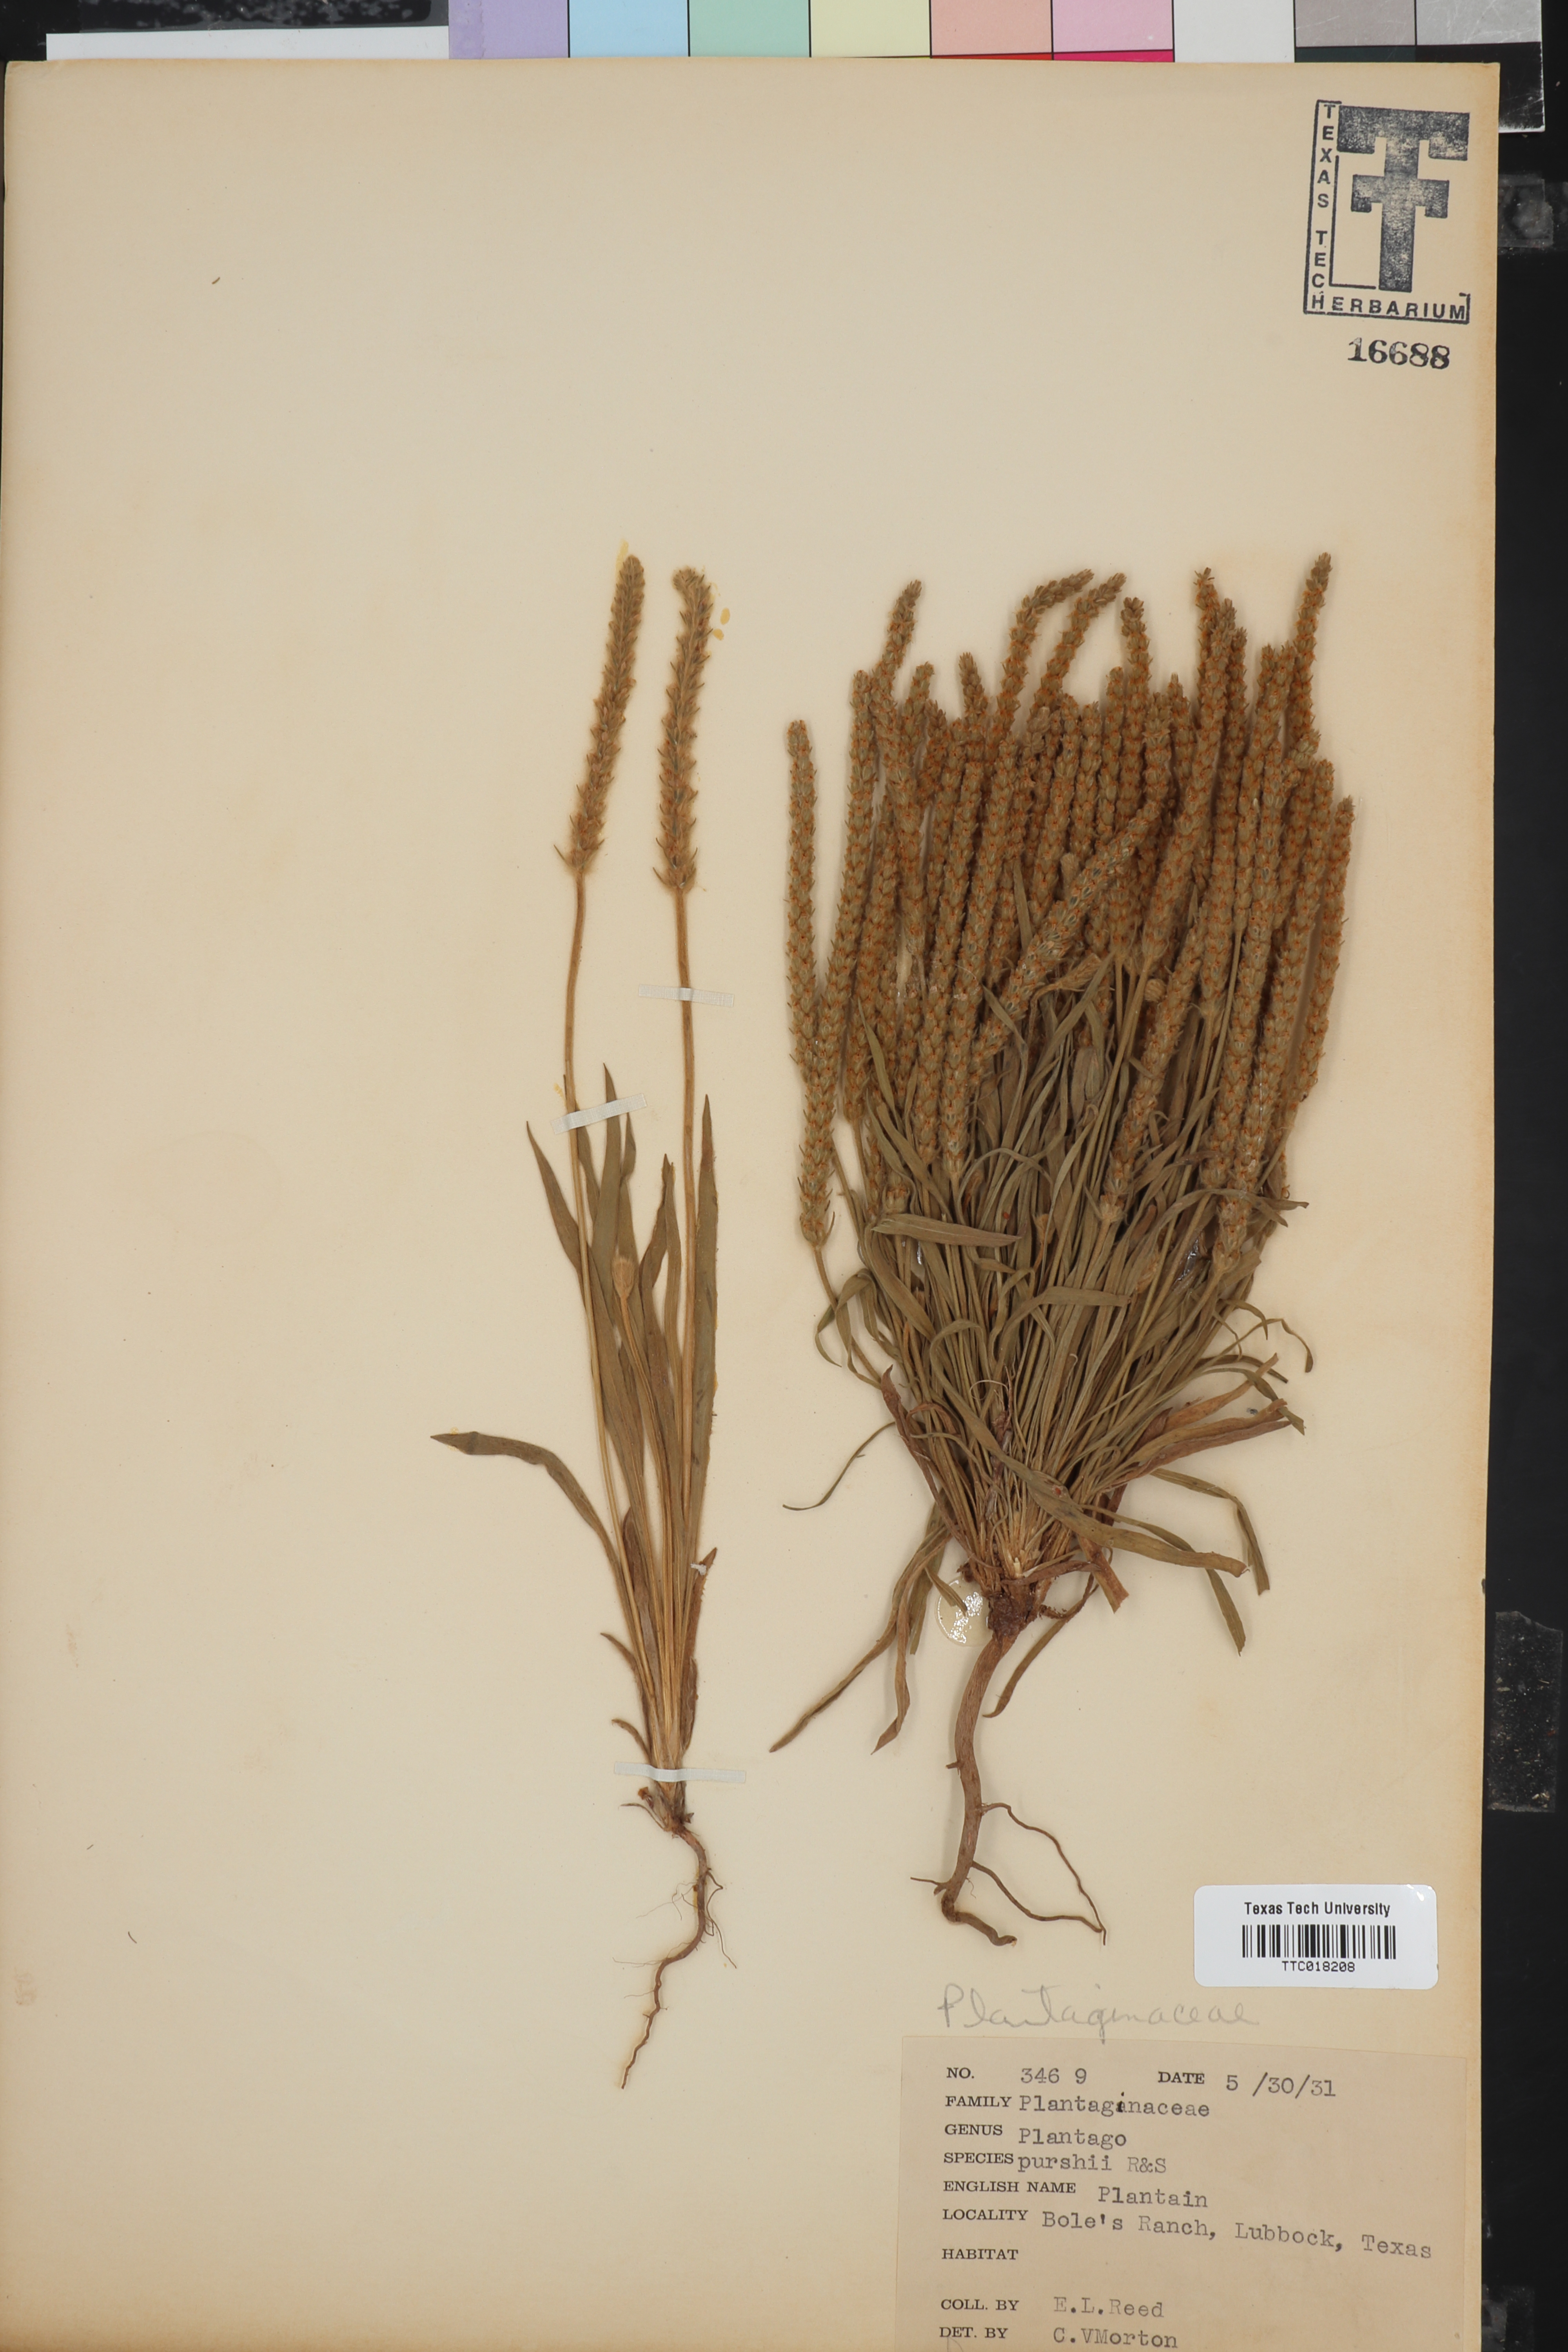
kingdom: Plantae
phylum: Tracheophyta
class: Magnoliopsida
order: Lamiales
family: Plantaginaceae
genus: Plantago
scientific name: Plantago patagonica
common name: Patagonia indian-wheat
